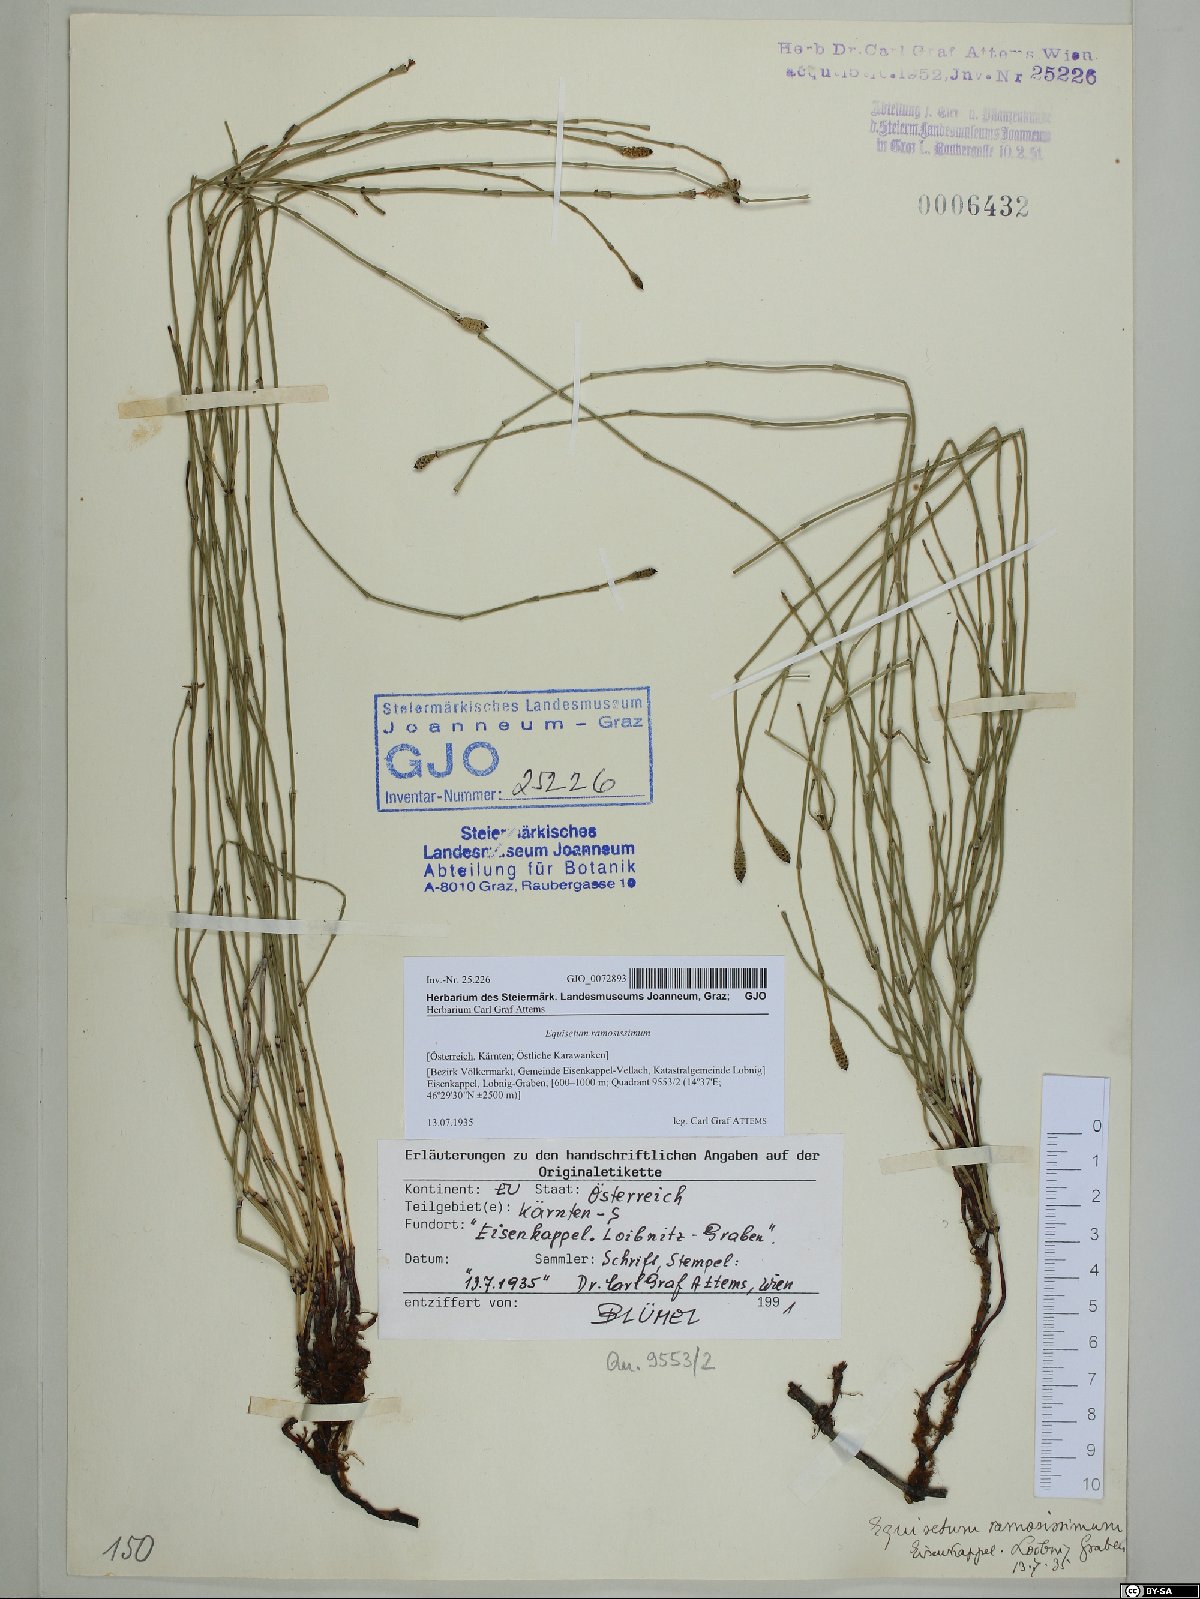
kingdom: Plantae
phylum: Tracheophyta
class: Polypodiopsida
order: Equisetales
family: Equisetaceae
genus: Equisetum
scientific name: Equisetum ramosissimum
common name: Branched horsetail
